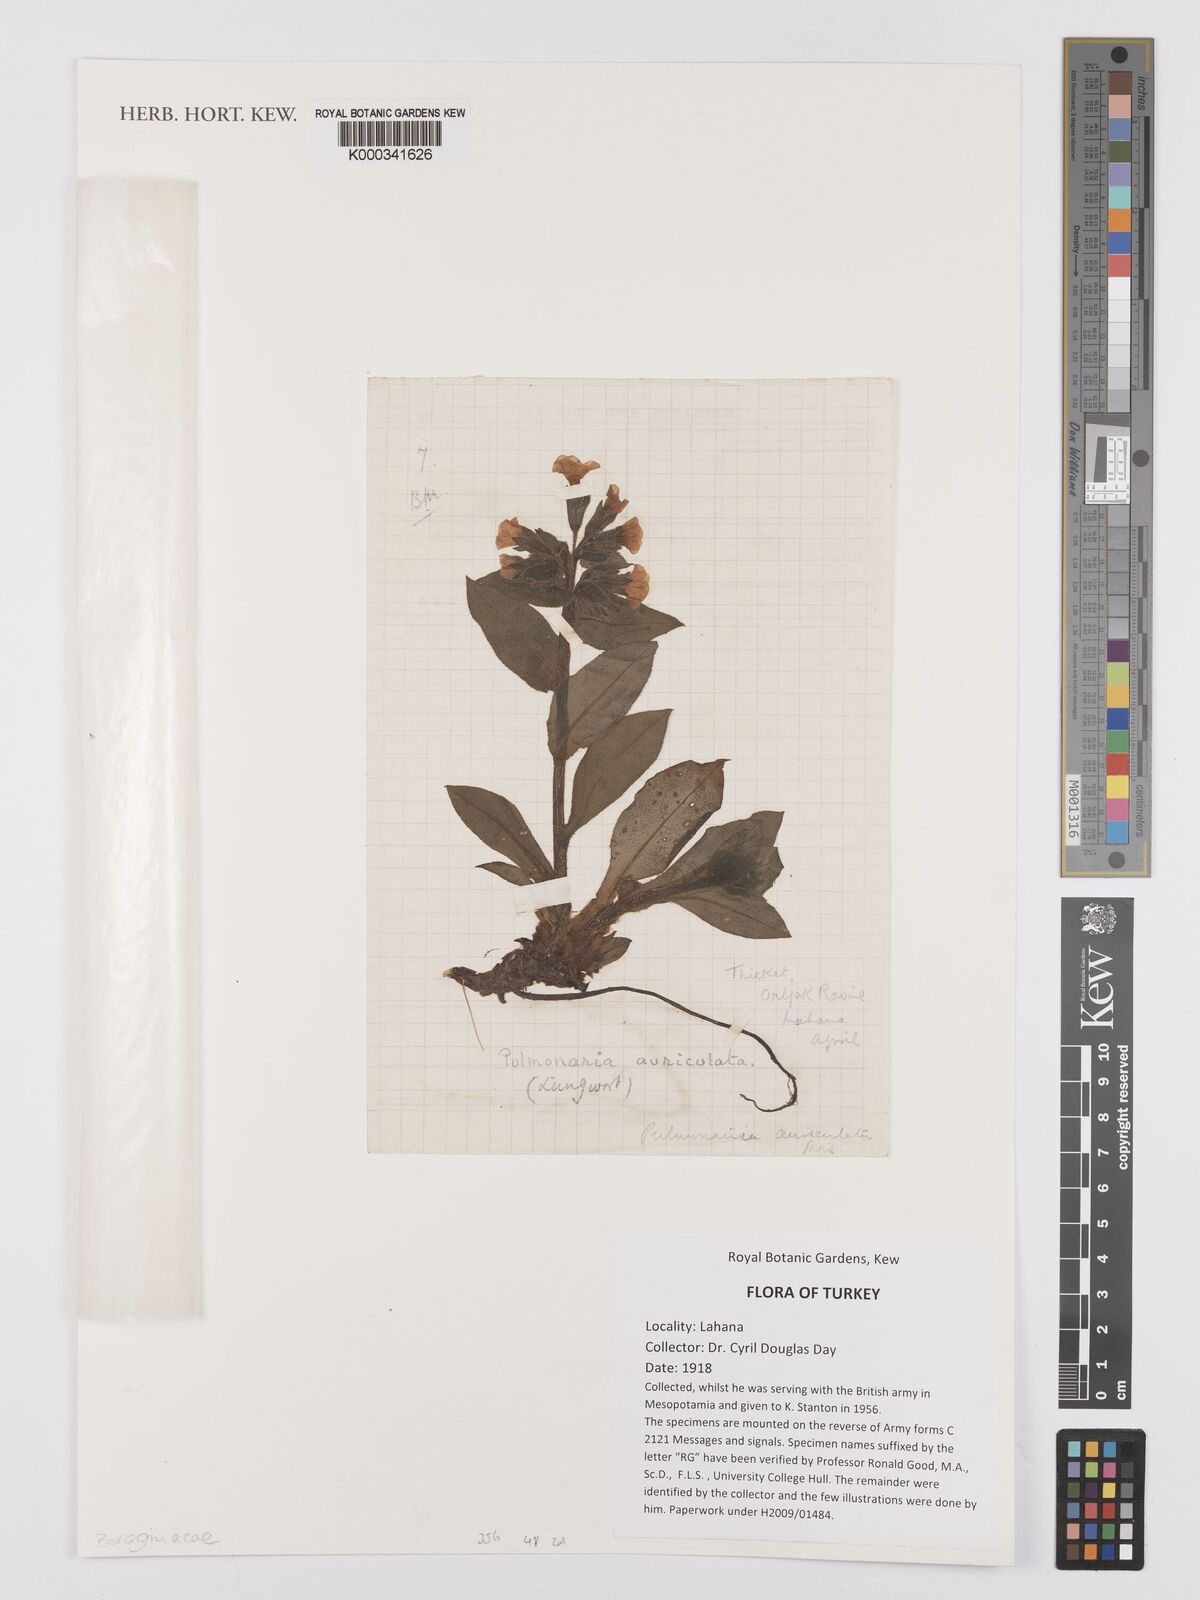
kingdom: Plantae
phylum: Tracheophyta
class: Magnoliopsida
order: Boraginales
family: Boraginaceae
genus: Pulmonaria
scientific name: Pulmonaria australis
